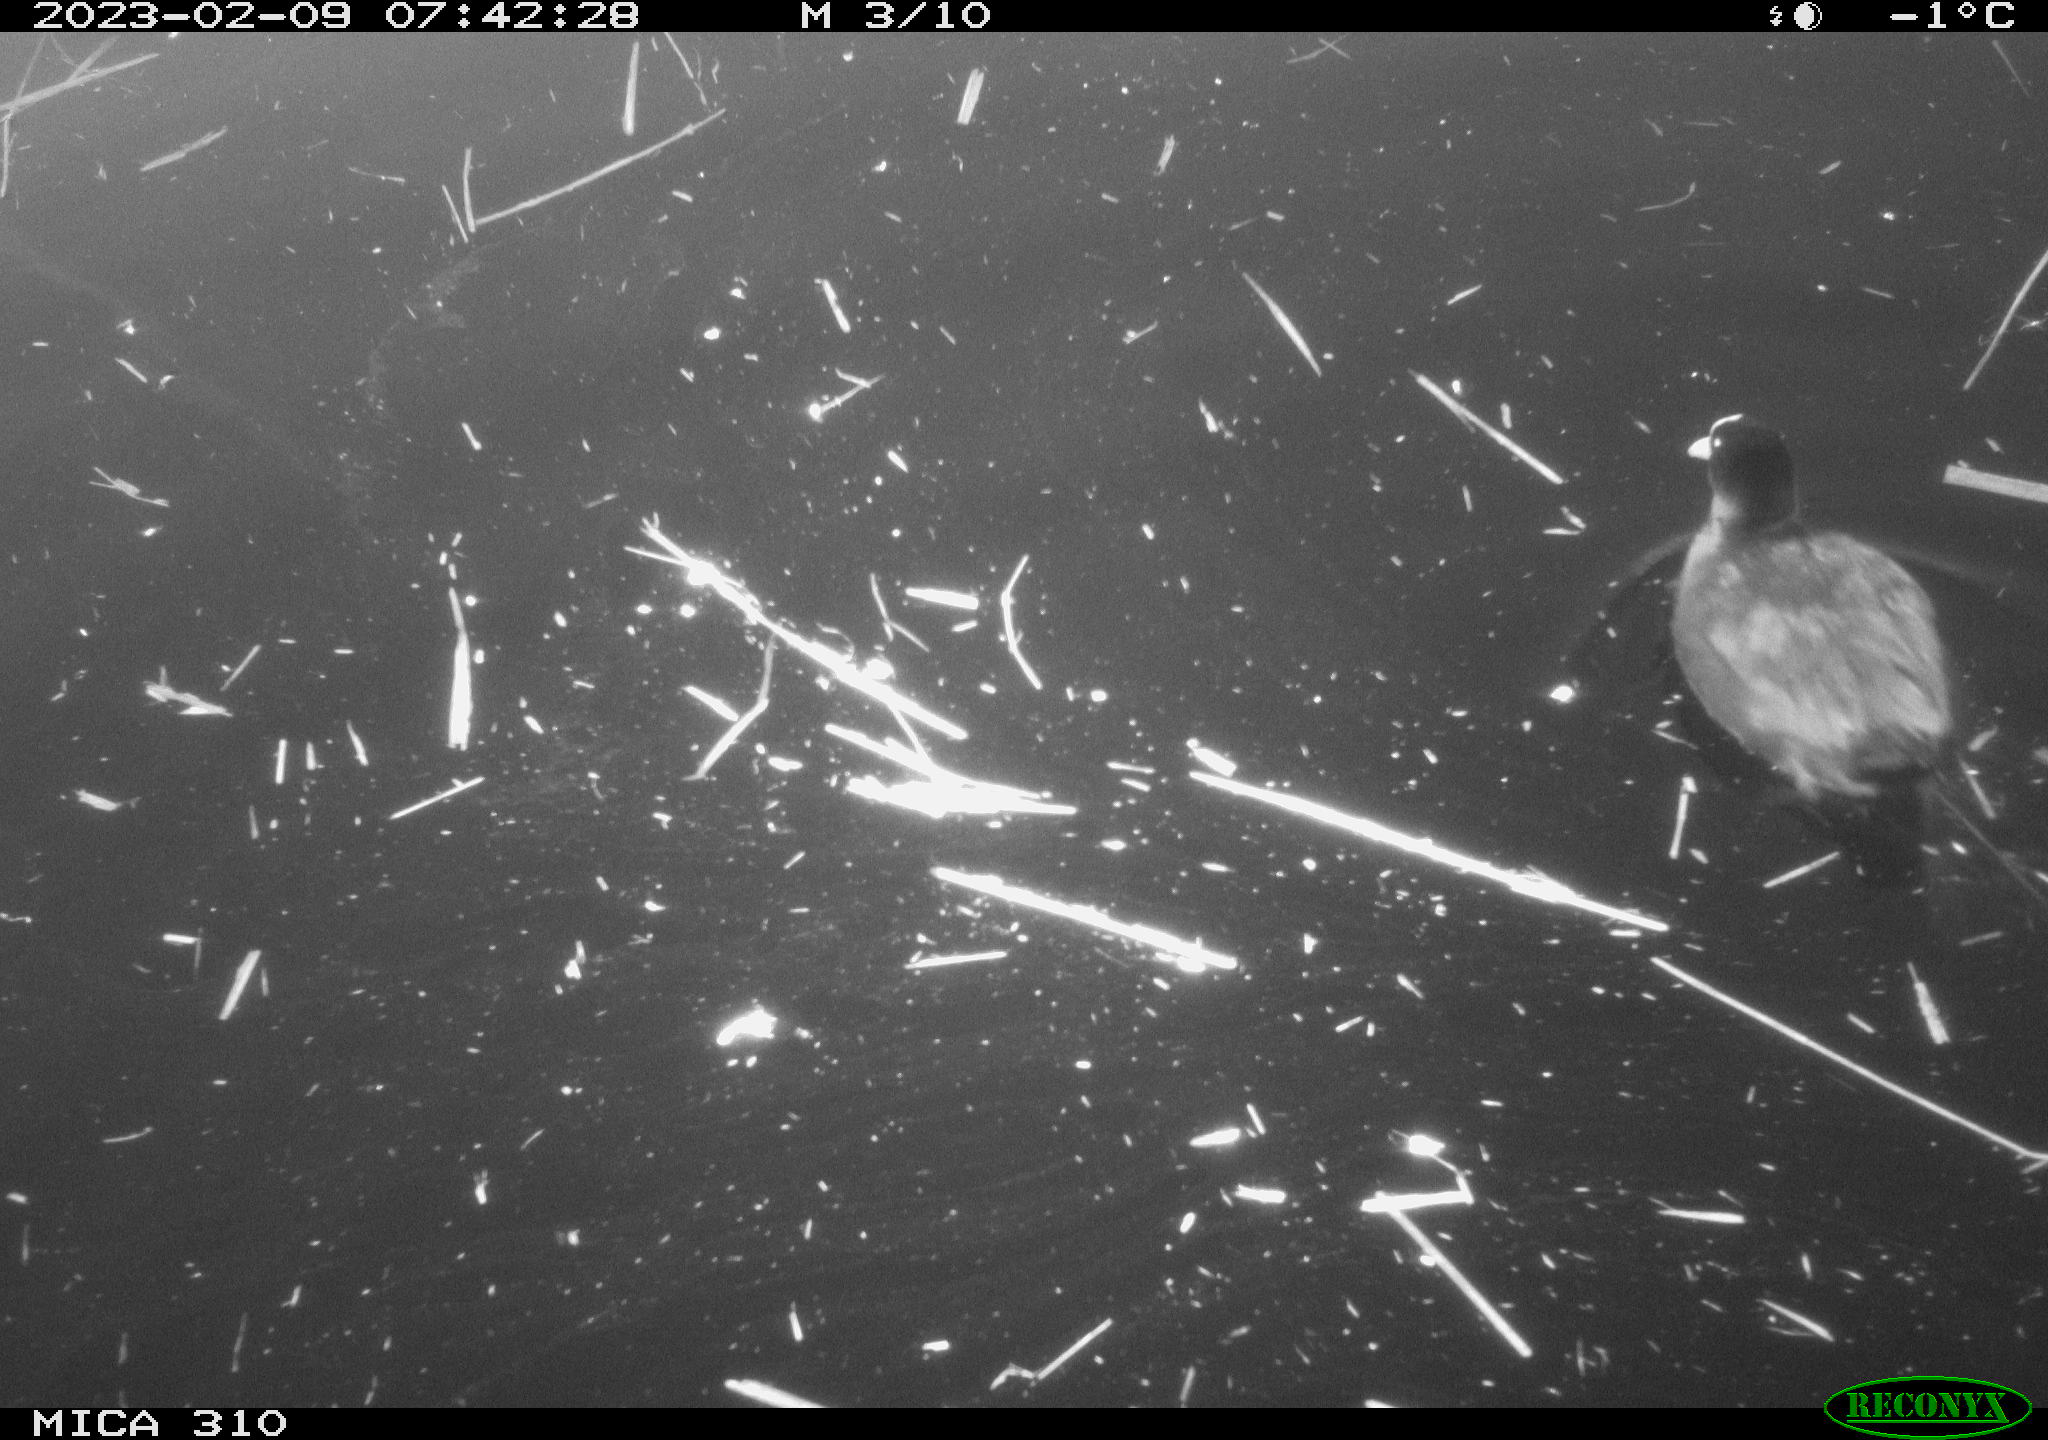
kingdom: Animalia
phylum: Chordata
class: Aves
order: Gruiformes
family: Rallidae
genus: Fulica
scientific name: Fulica atra
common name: Eurasian coot
